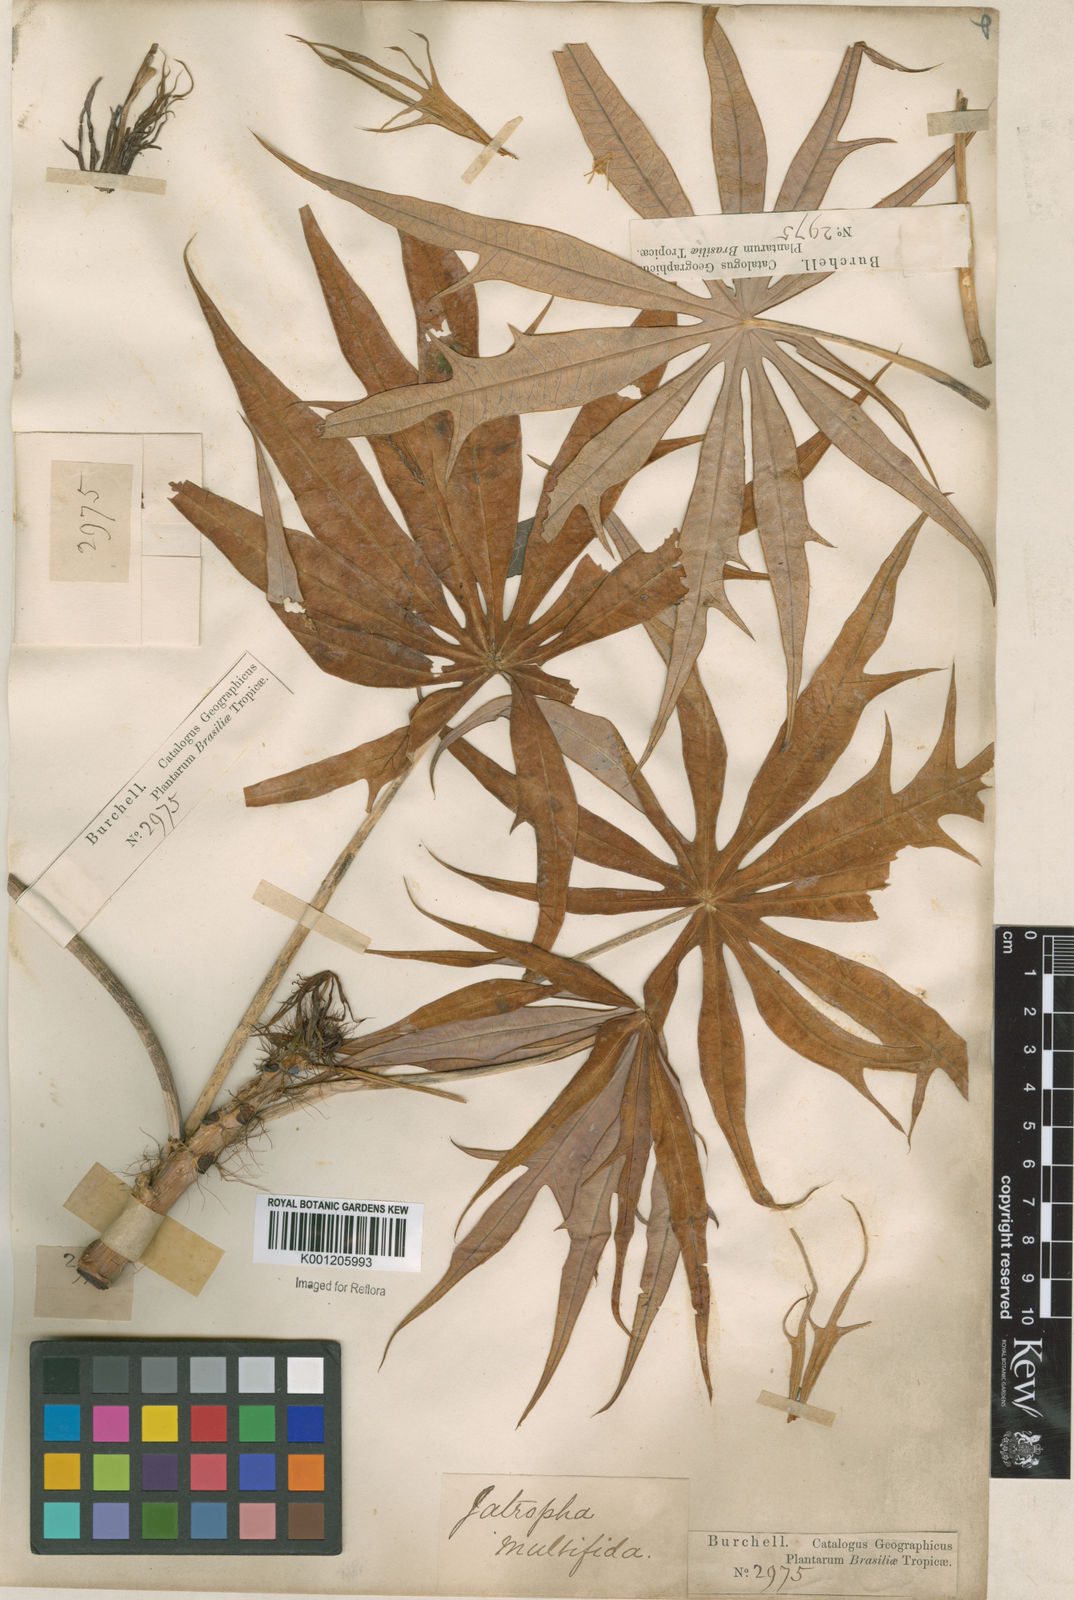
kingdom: Plantae
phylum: Tracheophyta
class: Magnoliopsida
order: Malpighiales
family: Euphorbiaceae
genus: Jatropha
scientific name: Jatropha multifida
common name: Coralbush
